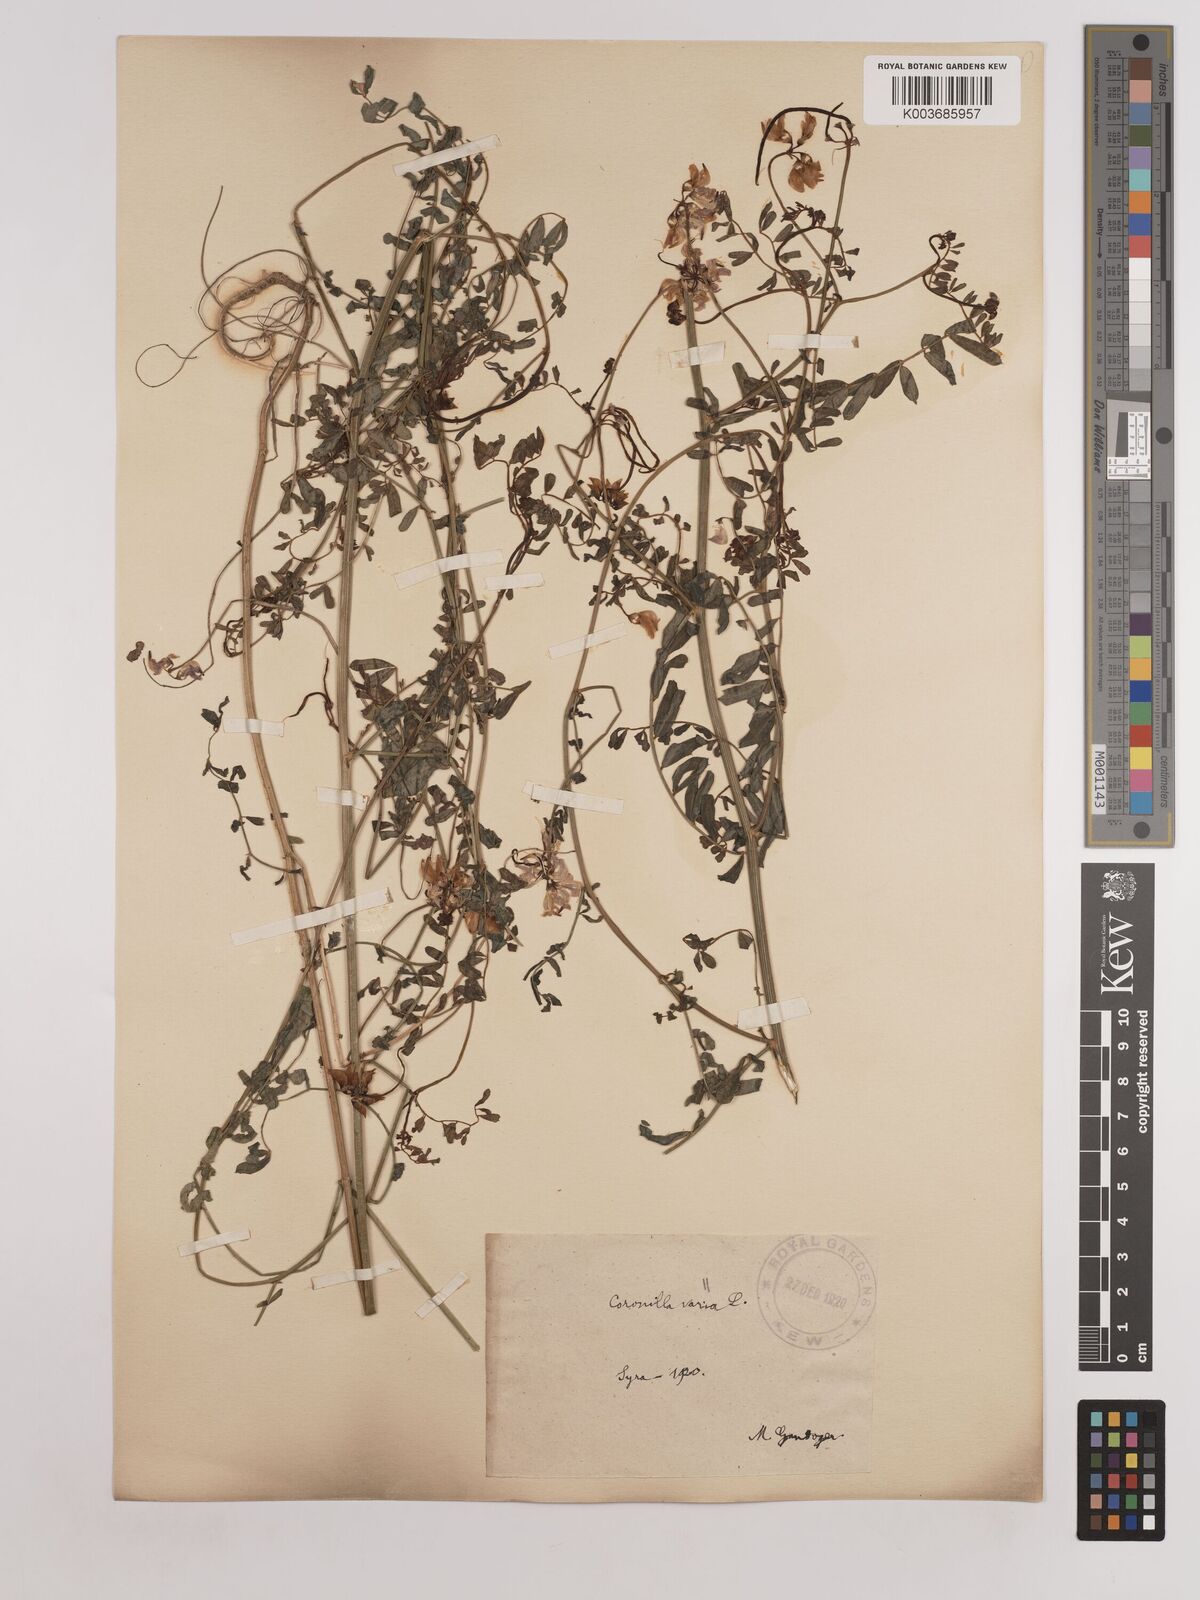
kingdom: Plantae
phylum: Tracheophyta
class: Magnoliopsida
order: Fabales
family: Fabaceae
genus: Coronilla
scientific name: Coronilla varia
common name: Crownvetch
